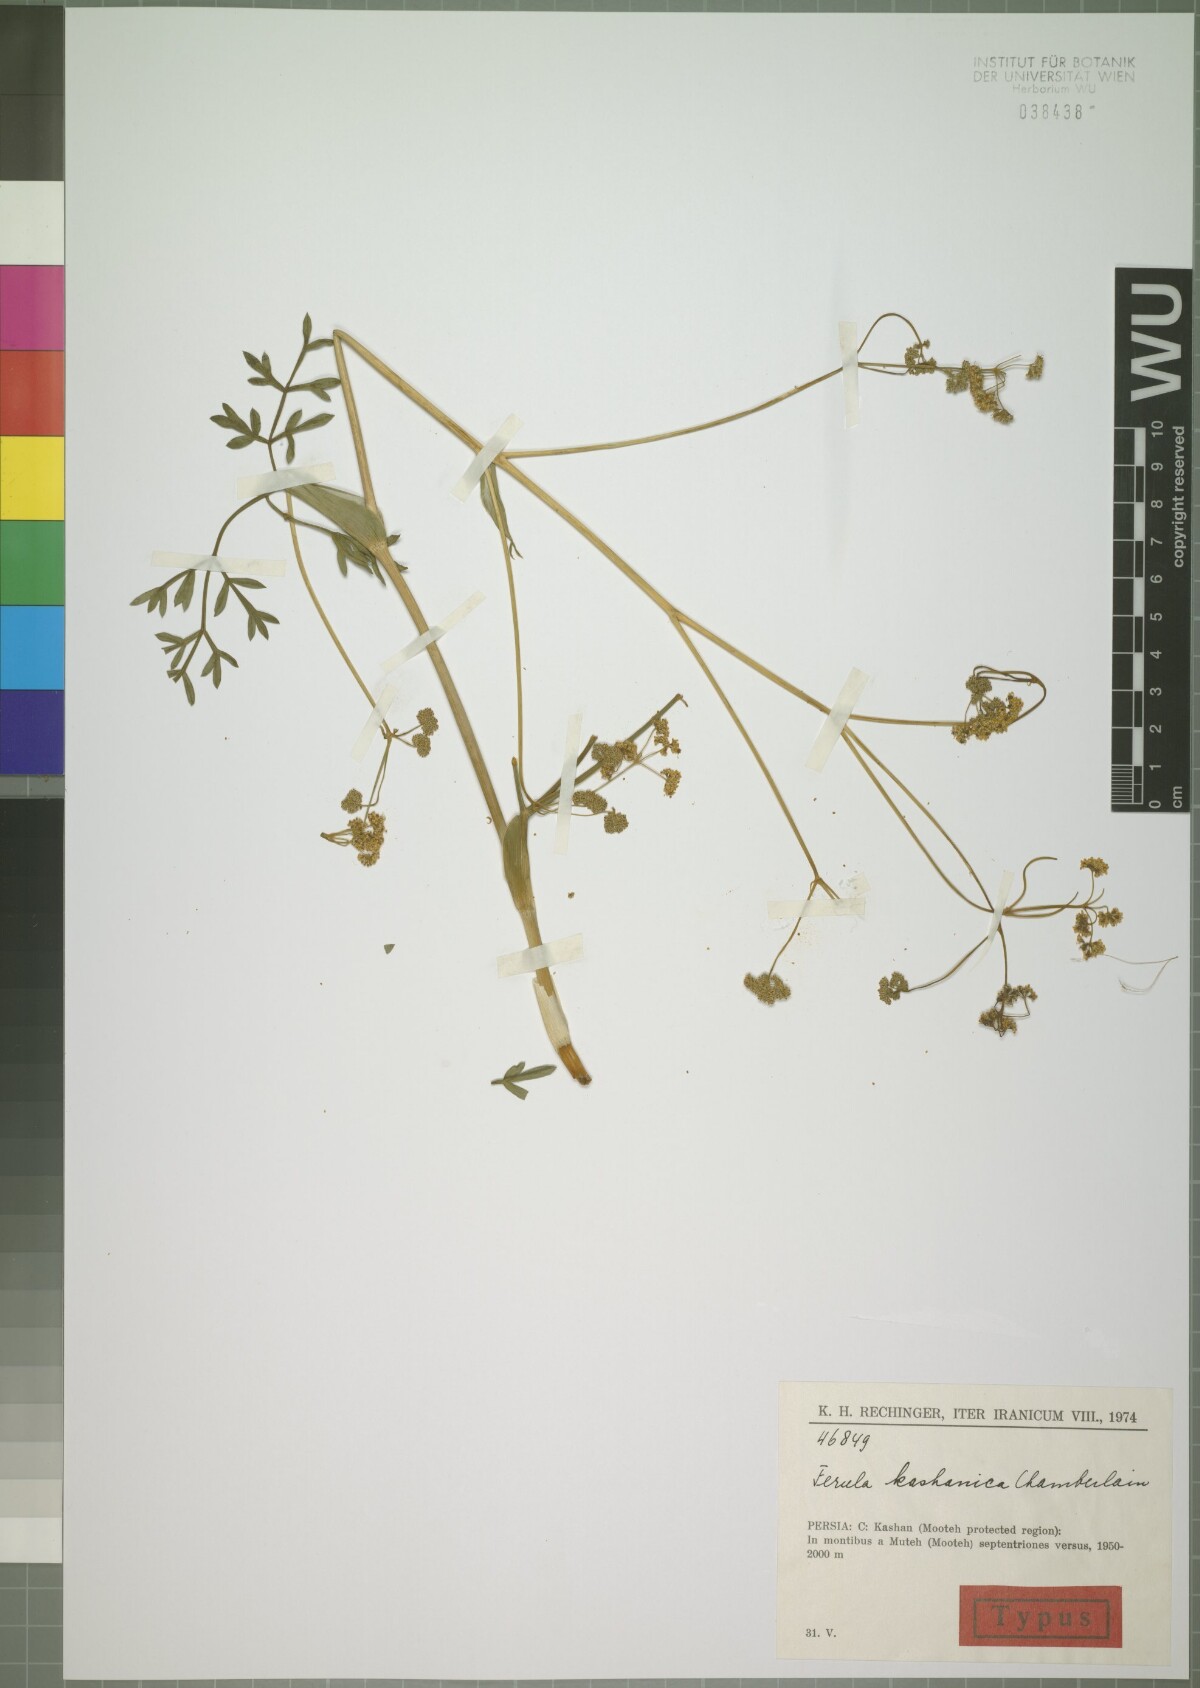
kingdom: Plantae
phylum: Tracheophyta
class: Magnoliopsida
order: Apiales
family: Apiaceae
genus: Ferula
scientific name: Ferula kashanica
